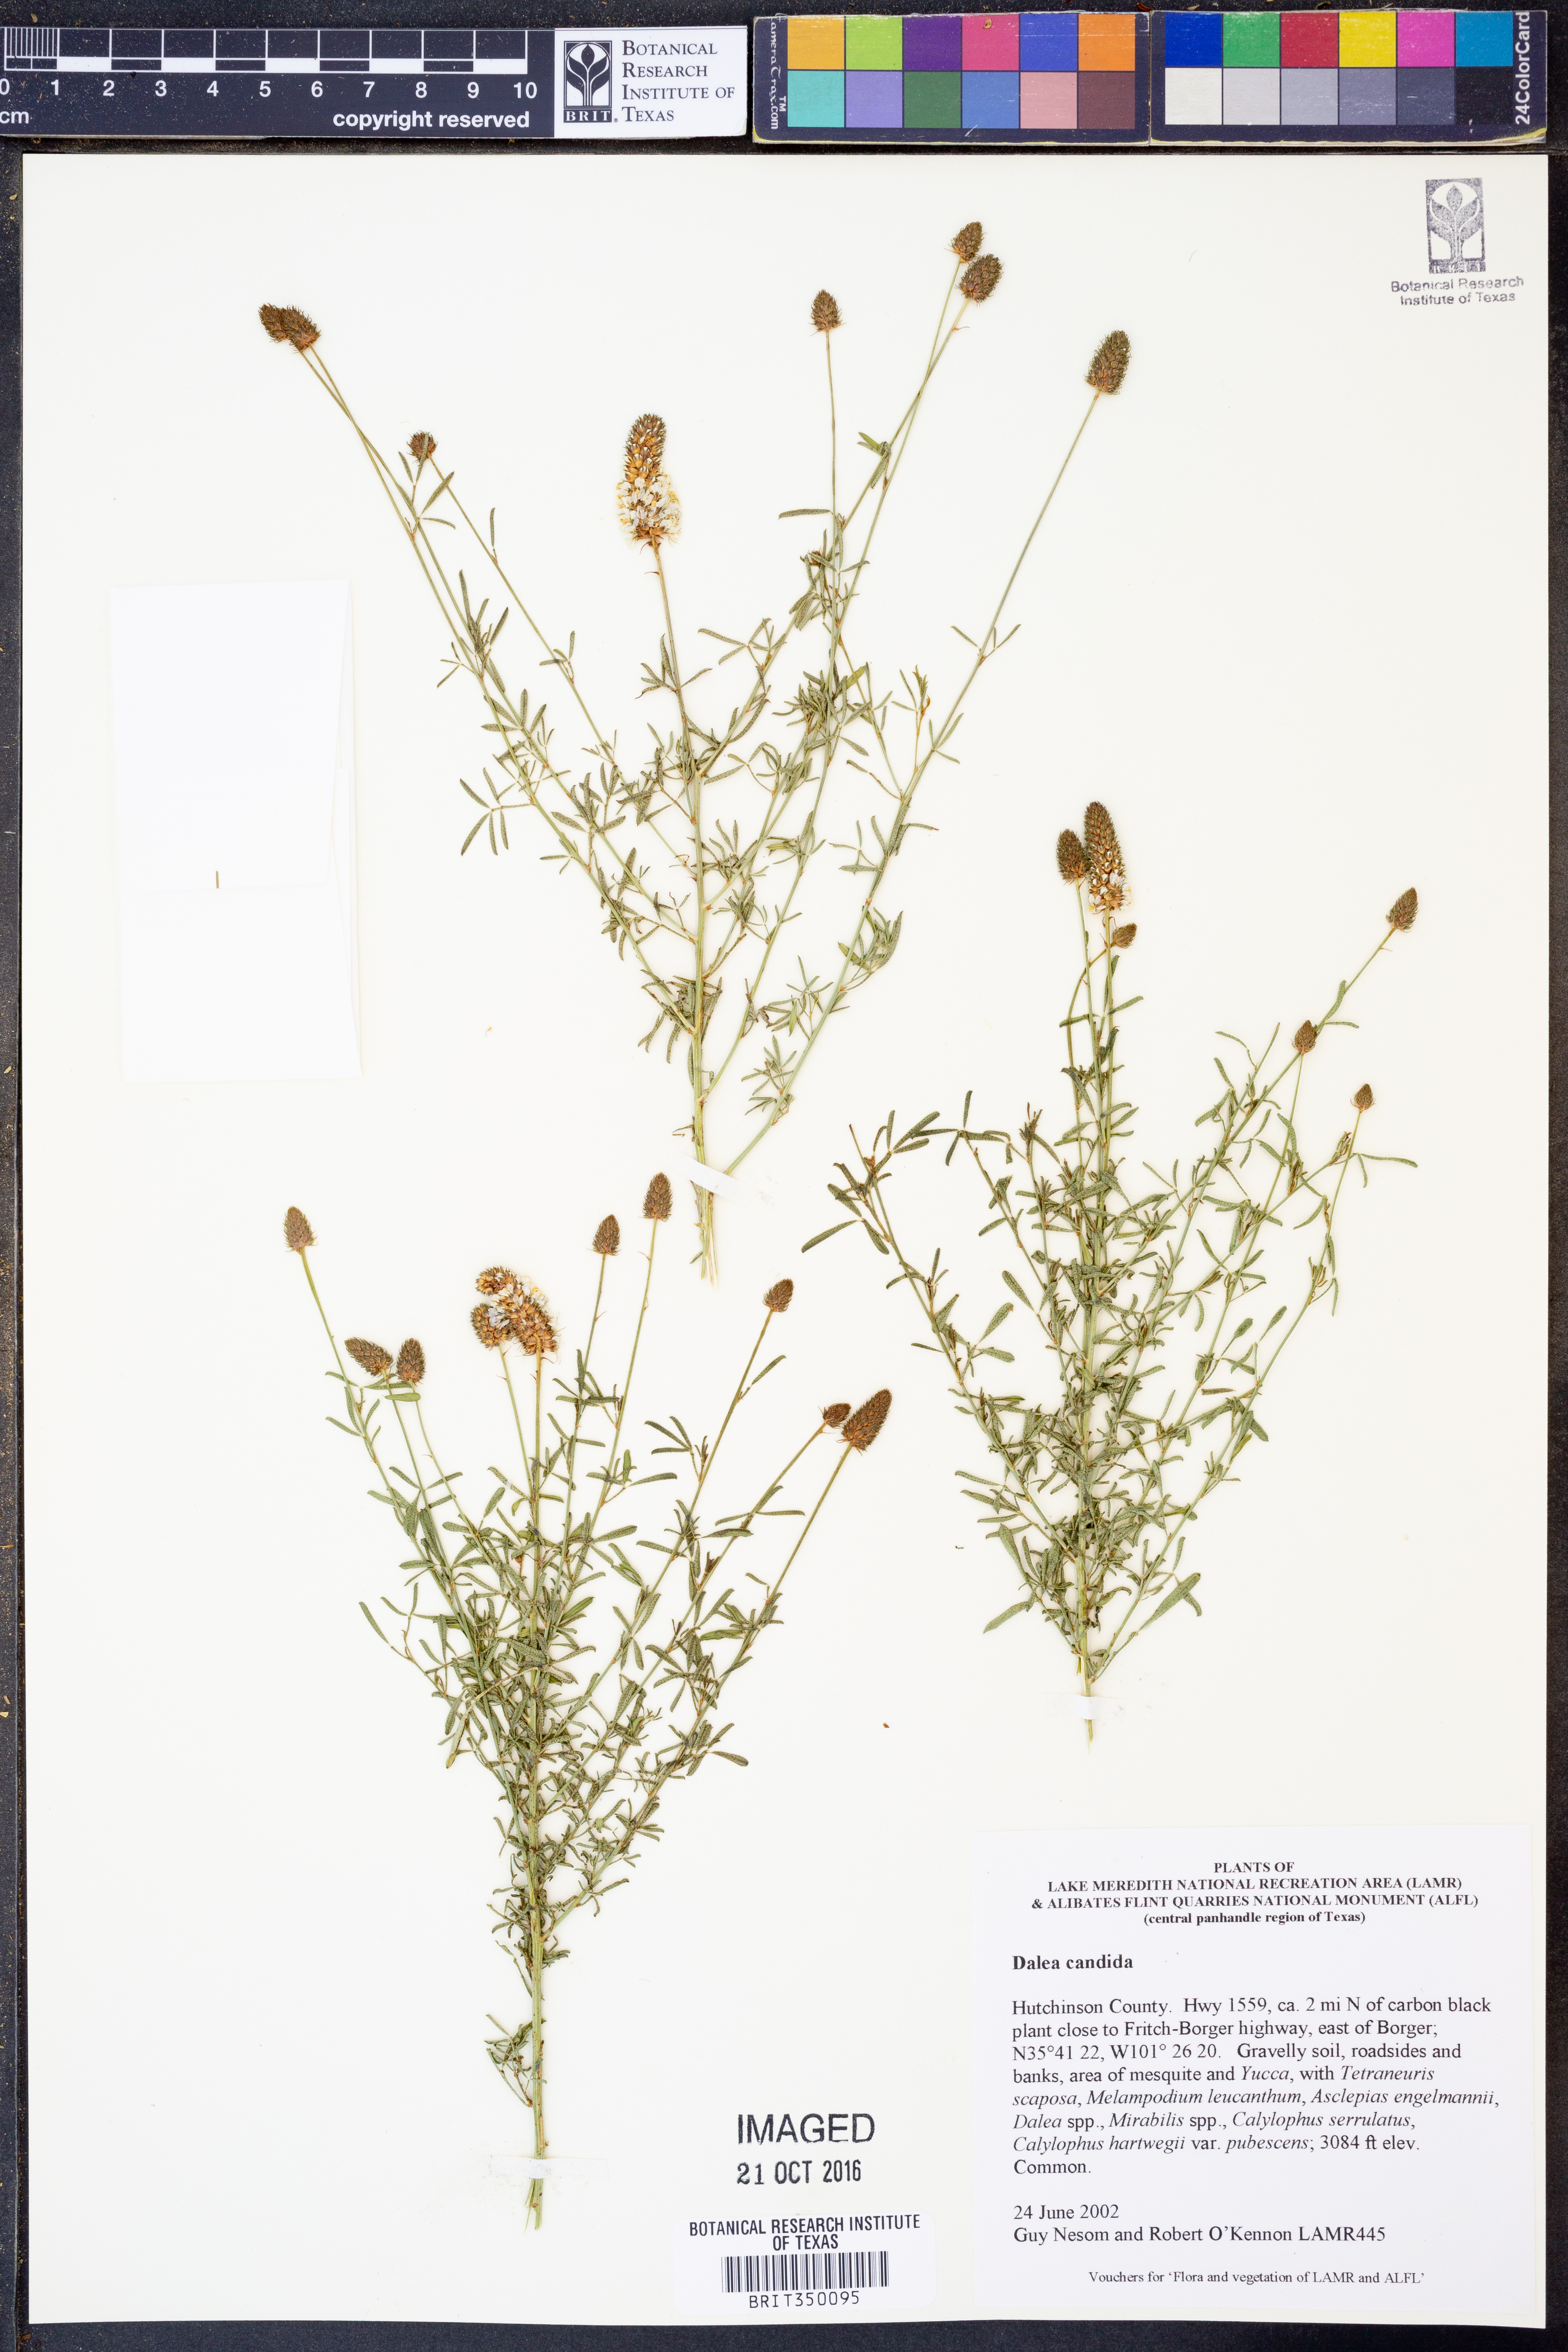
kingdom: Plantae
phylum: Tracheophyta
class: Magnoliopsida
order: Fabales
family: Fabaceae
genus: Dalea
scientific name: Dalea candida
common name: White prairie-clover
